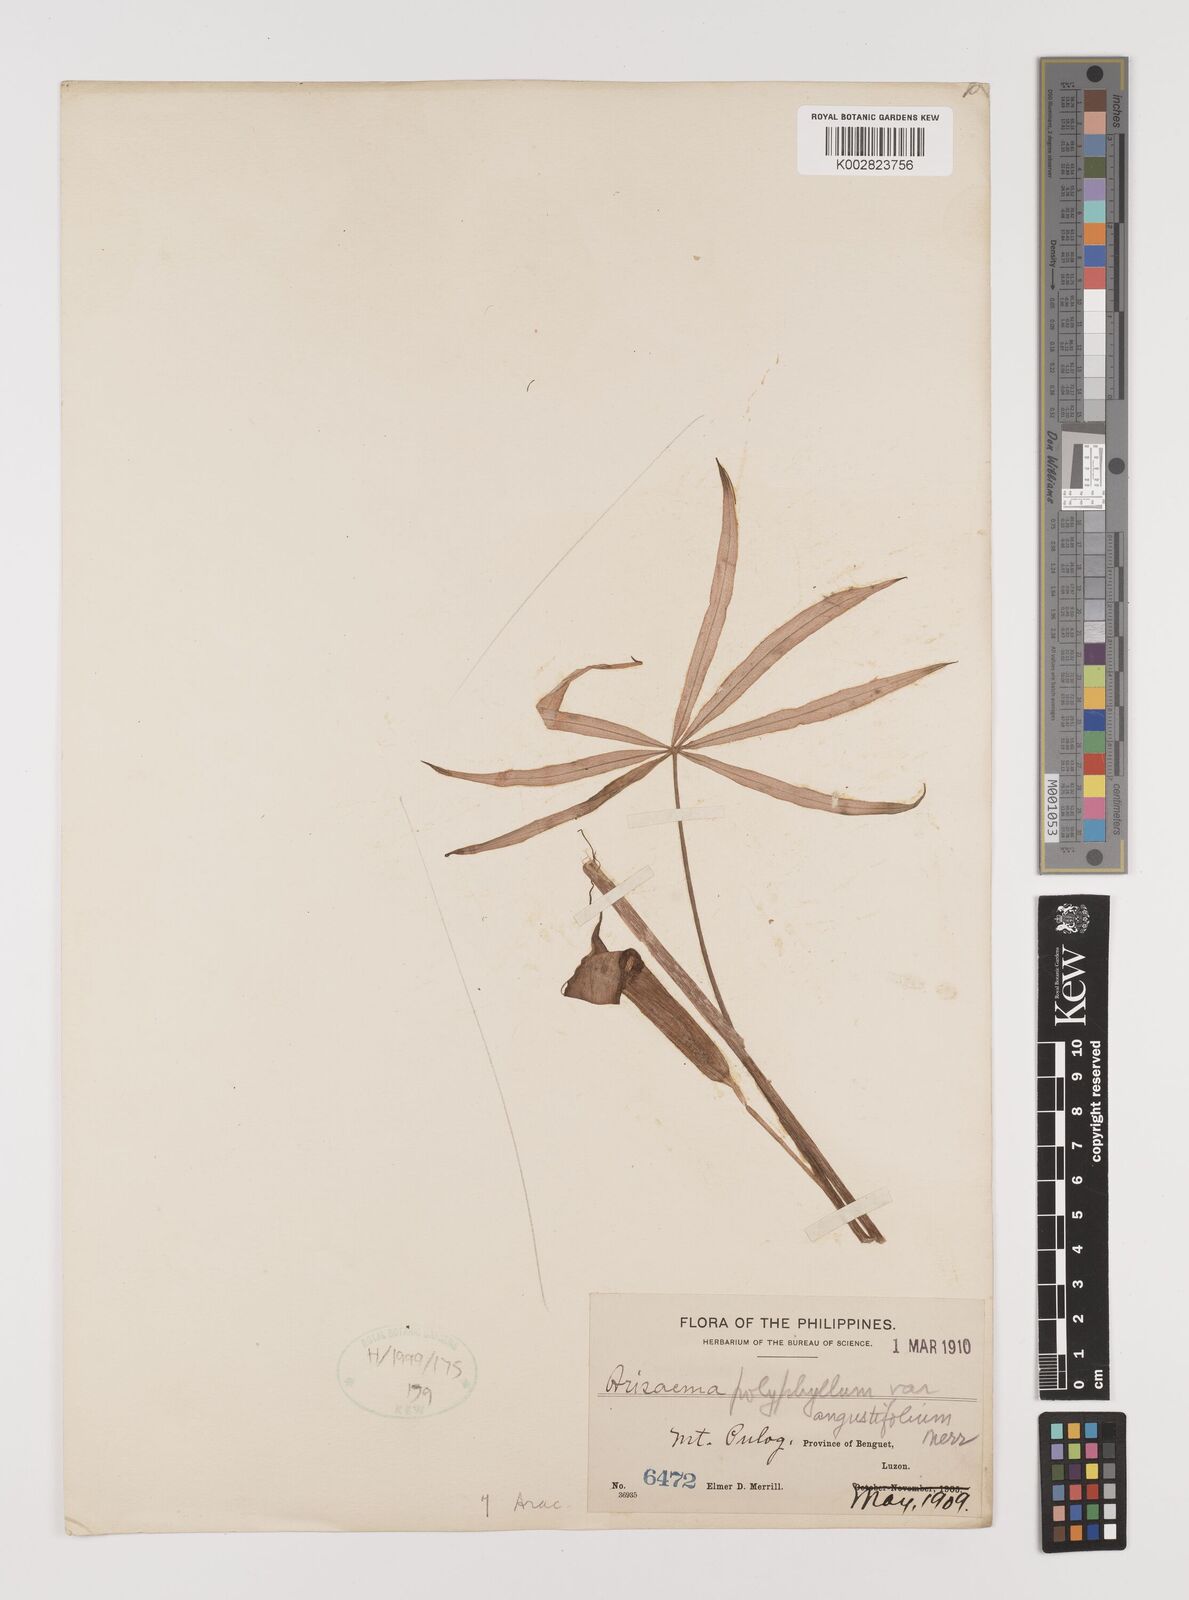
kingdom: Plantae
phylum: Tracheophyta
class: Liliopsida
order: Alismatales
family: Araceae
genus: Arisaema
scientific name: Arisaema polyphyllum
